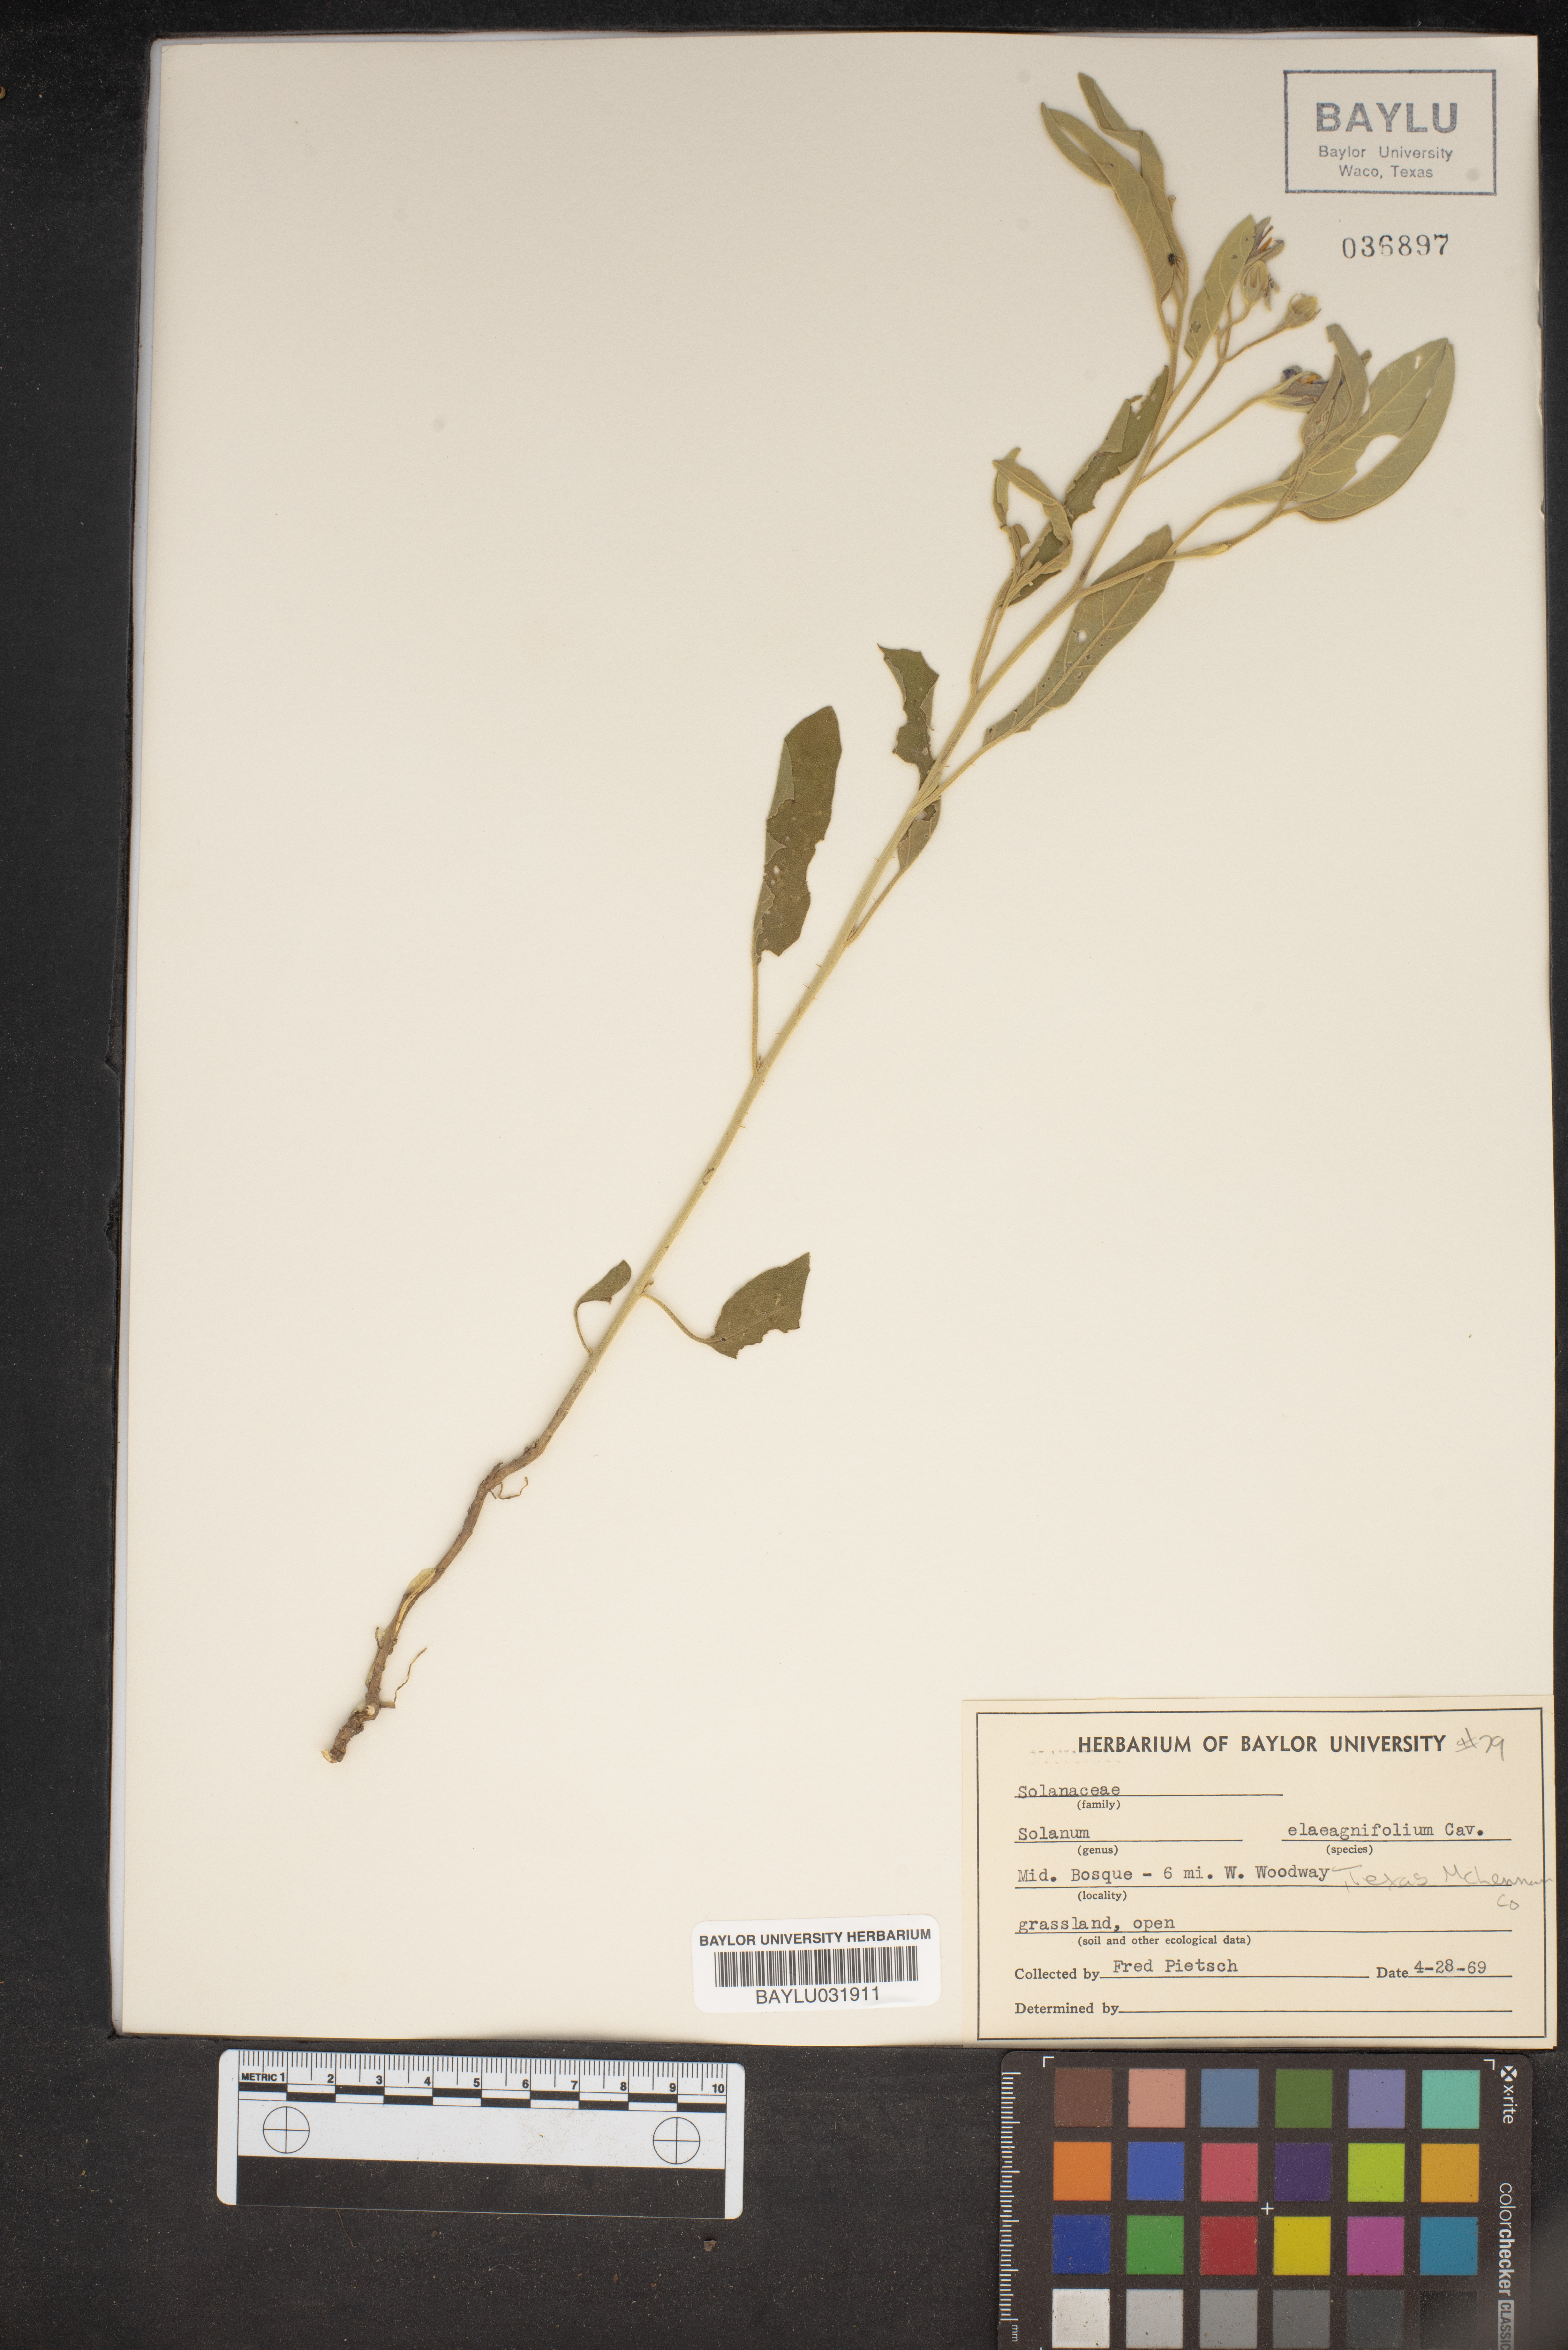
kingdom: Plantae
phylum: Tracheophyta
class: Magnoliopsida
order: Solanales
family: Solanaceae
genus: Solanum
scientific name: Solanum elaeagnifolium
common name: Silverleaf nightshade
